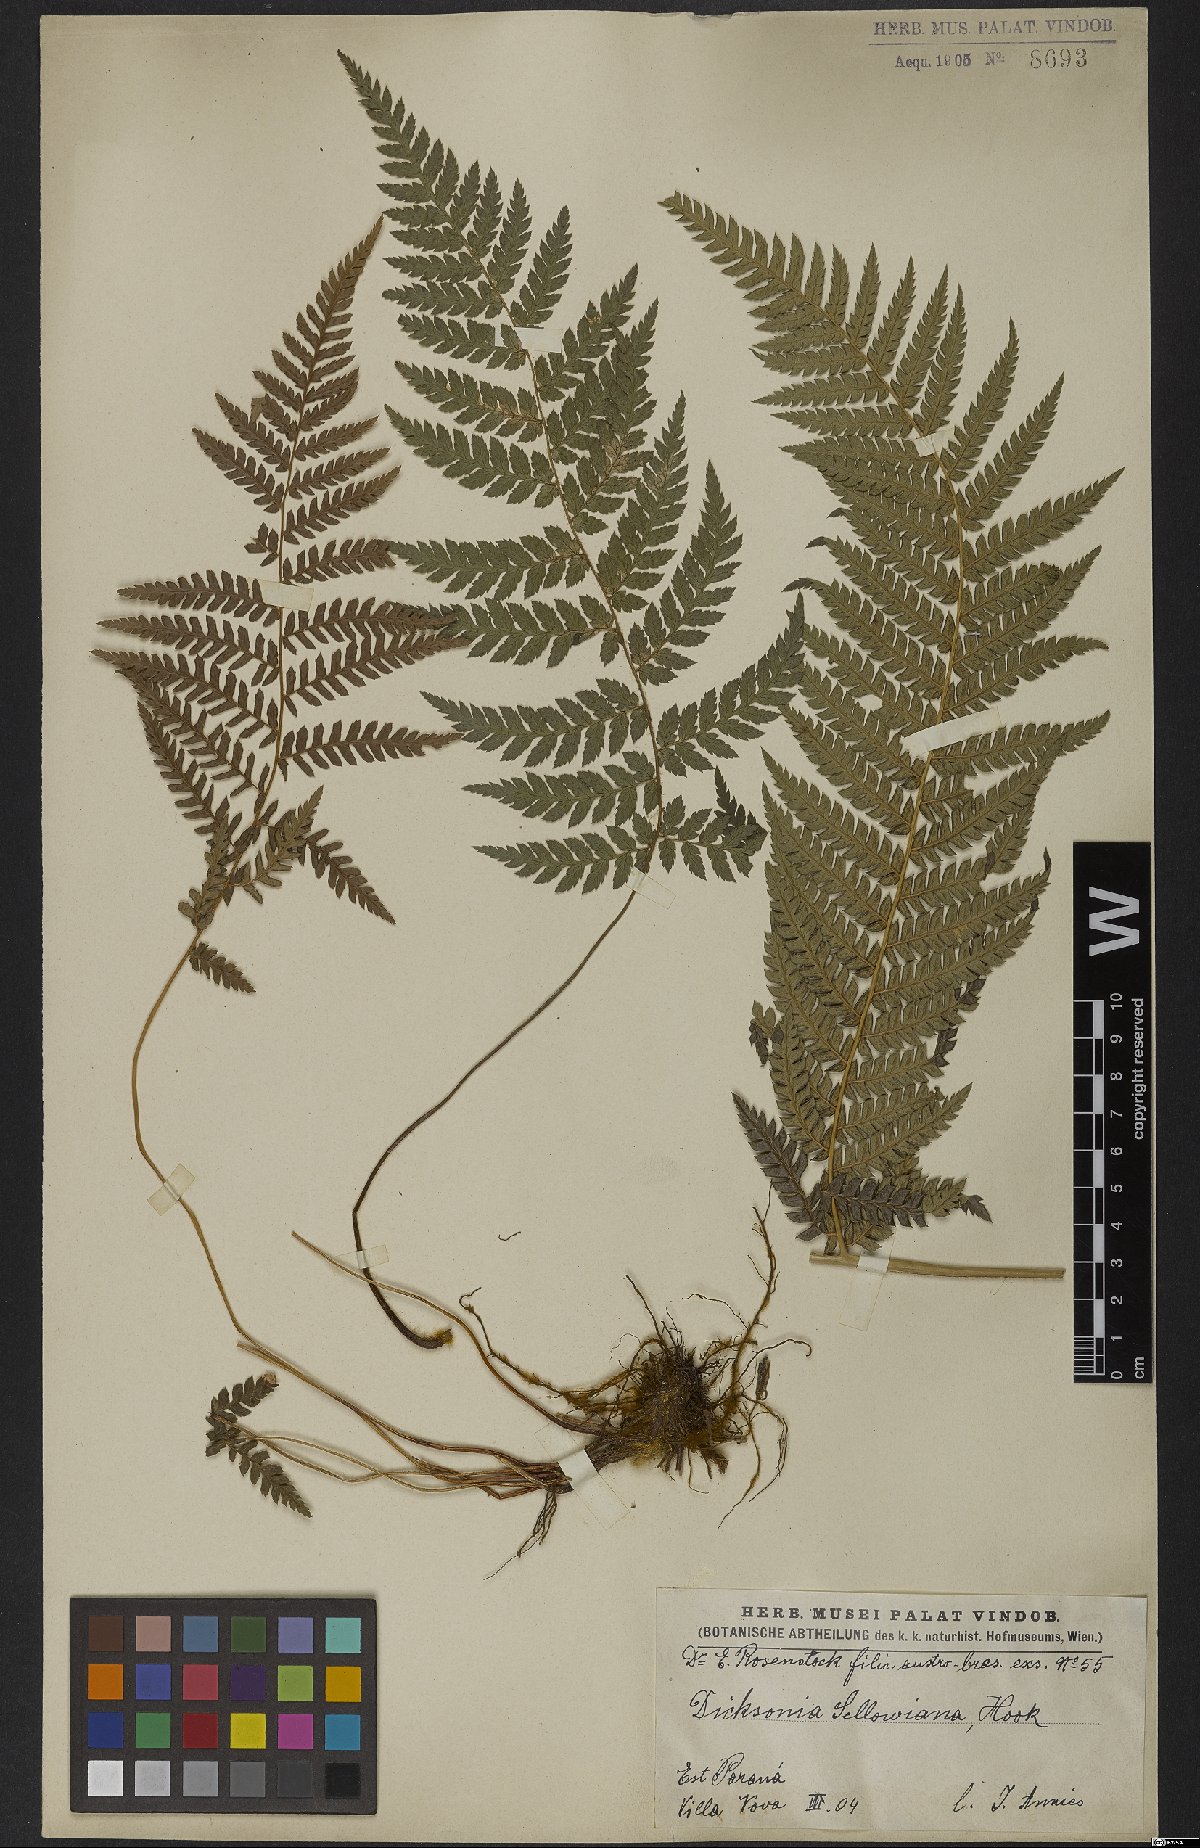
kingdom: Plantae
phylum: Tracheophyta
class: Polypodiopsida
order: Cyatheales
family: Dicksoniaceae
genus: Dicksonia
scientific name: Dicksonia sellowiana
